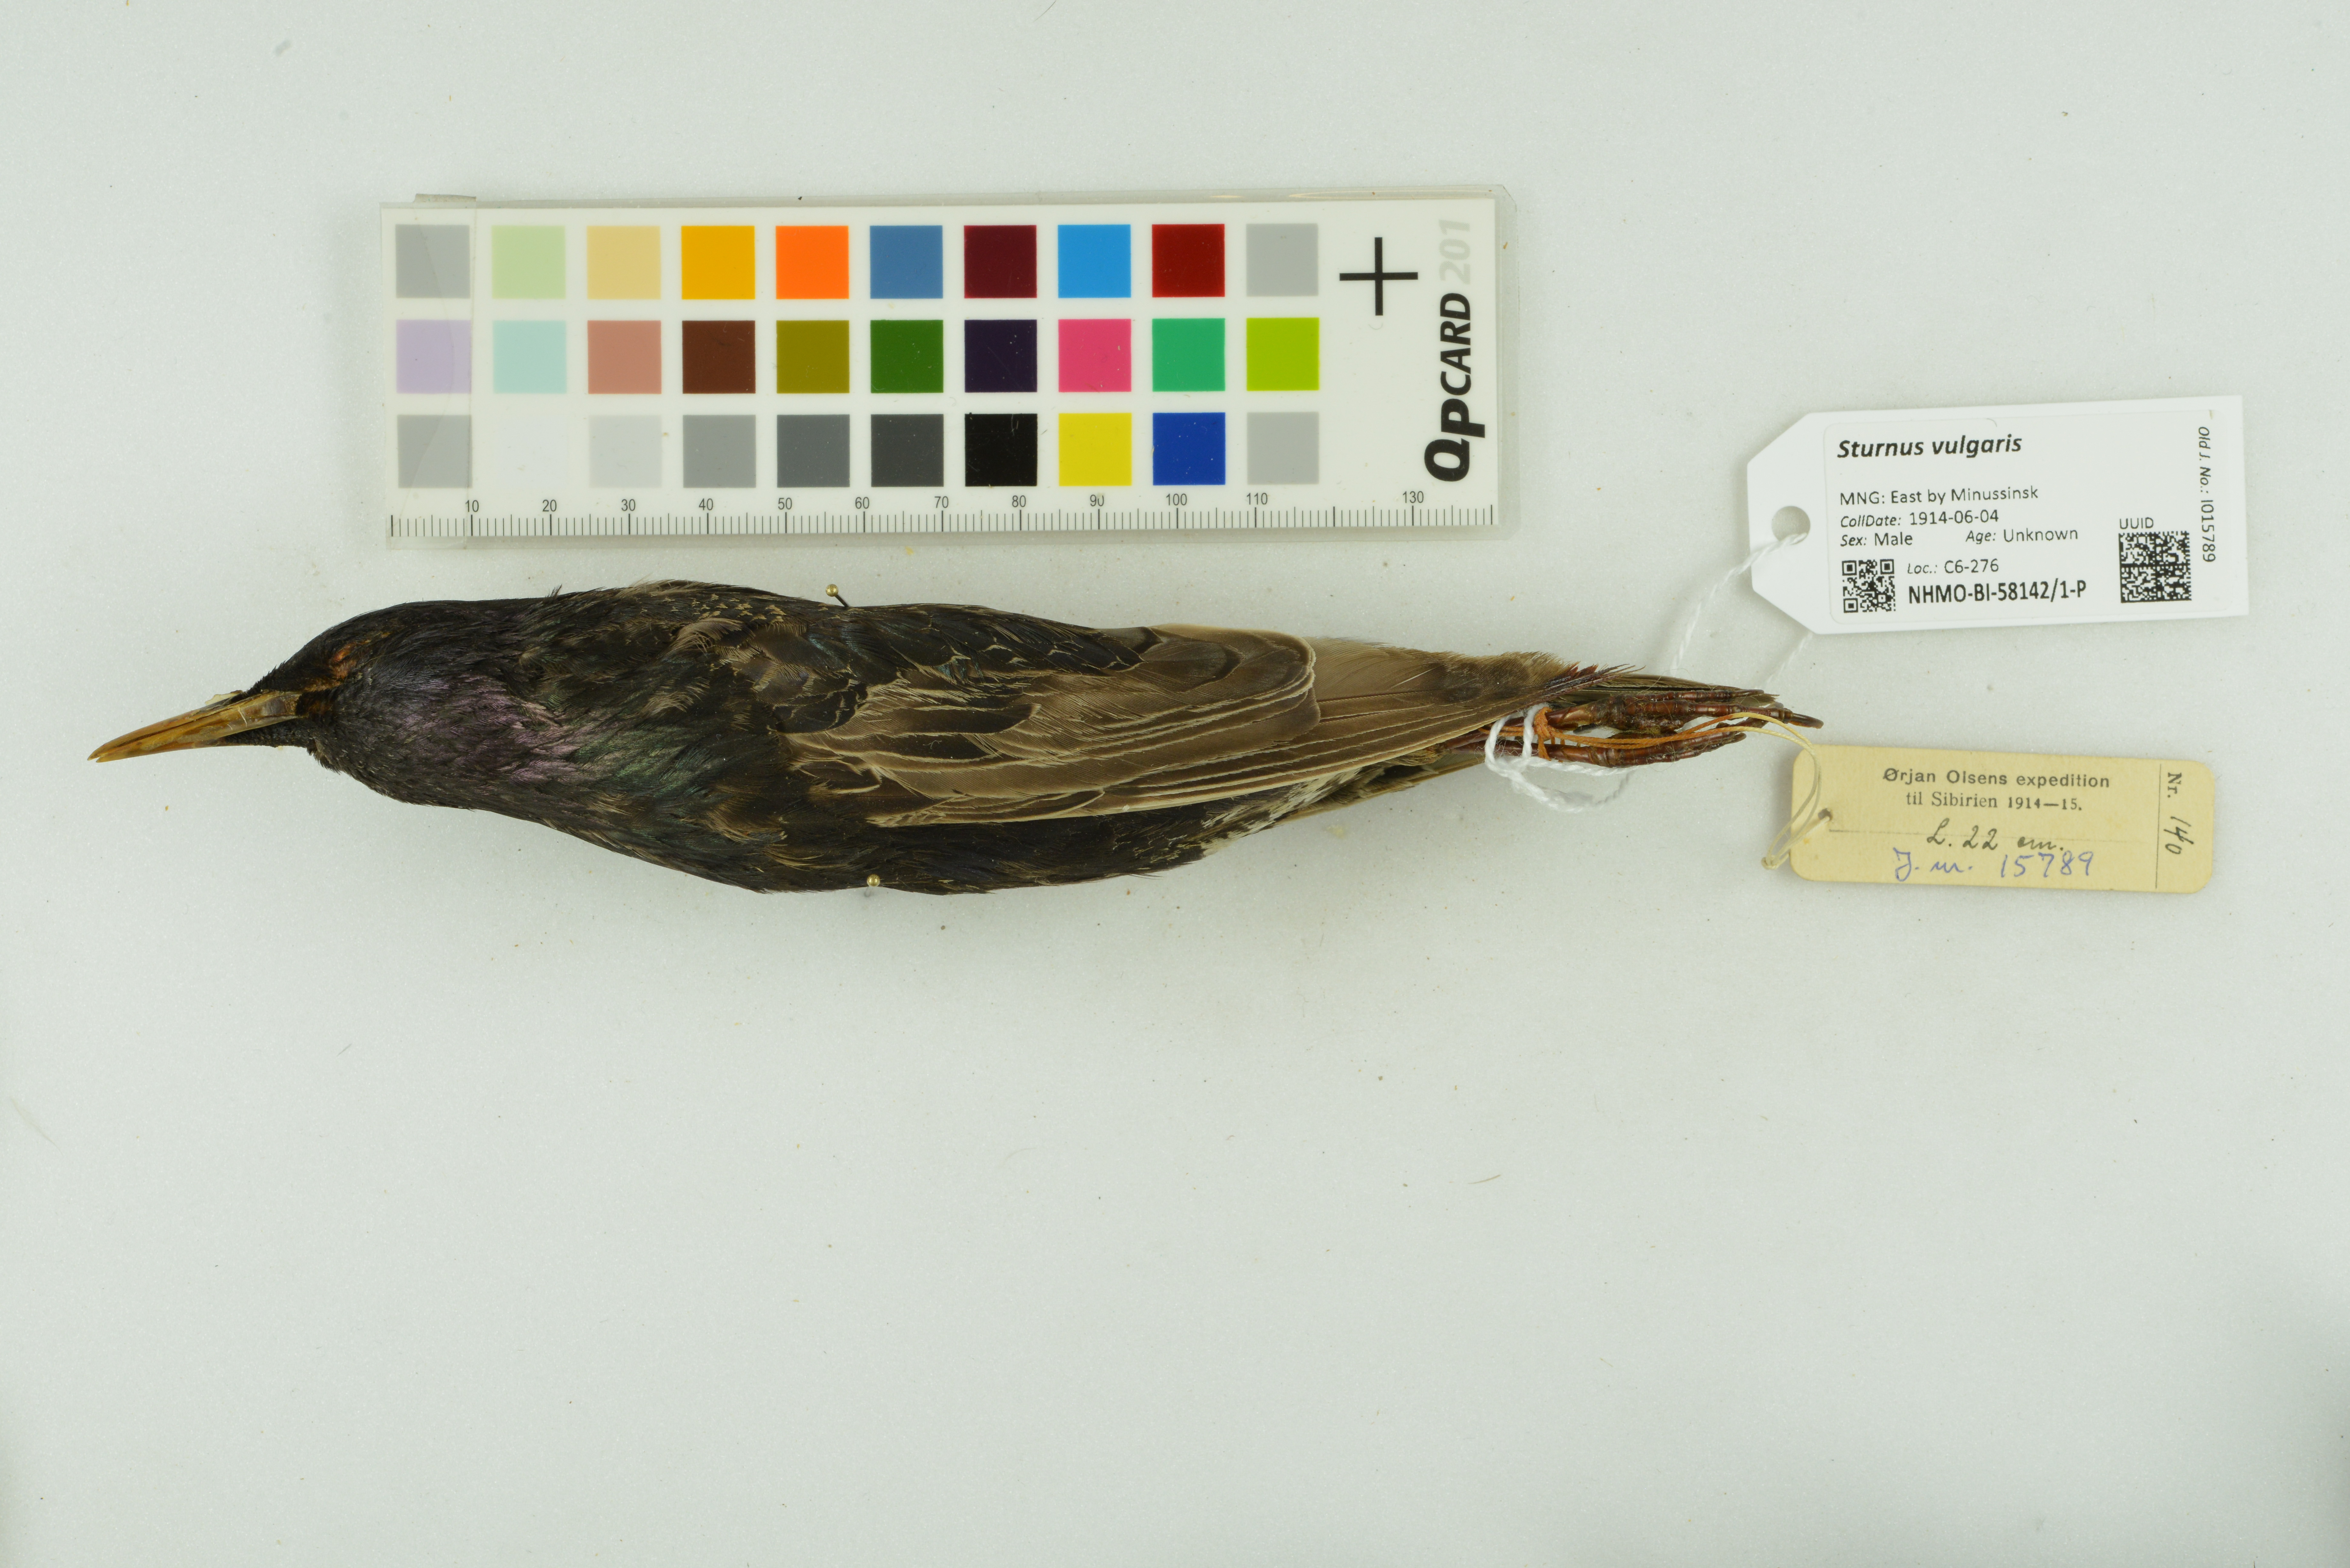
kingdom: Animalia
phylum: Chordata
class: Aves
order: Passeriformes
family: Sturnidae
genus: Sturnus
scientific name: Sturnus vulgaris
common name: Common starling
